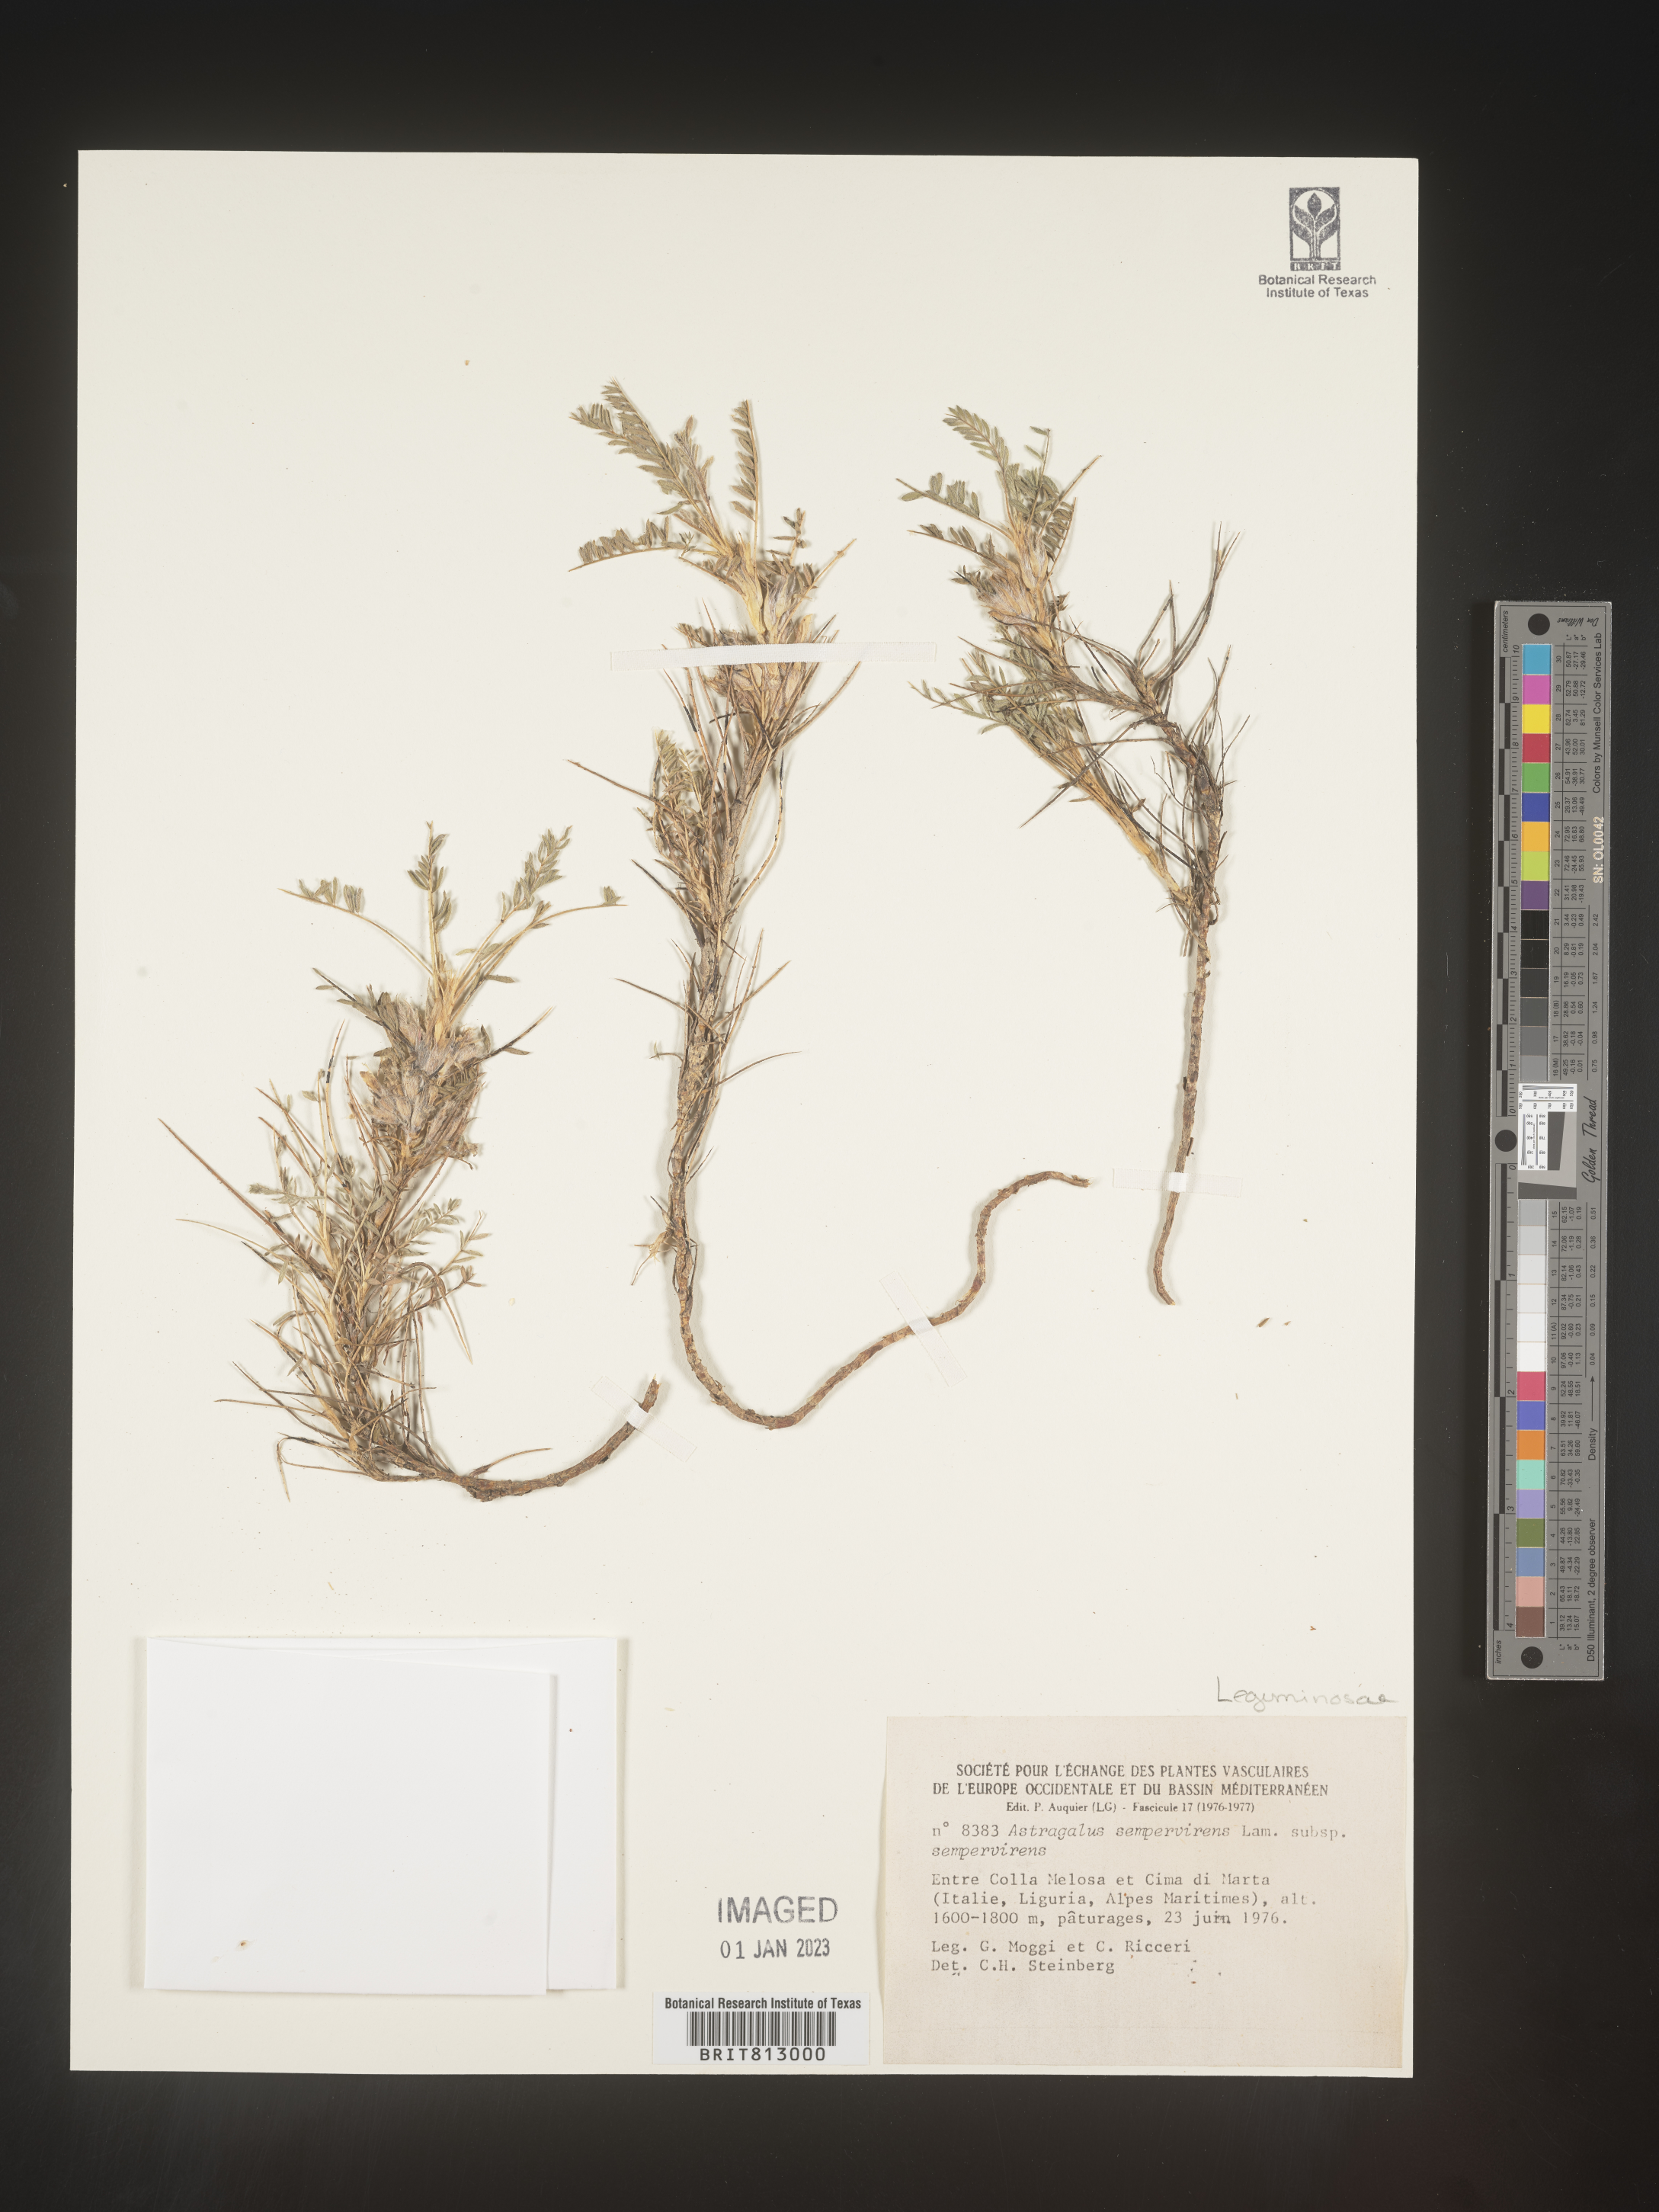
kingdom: Plantae
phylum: Tracheophyta
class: Magnoliopsida
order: Fabales
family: Fabaceae
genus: Astragalus
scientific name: Astragalus
